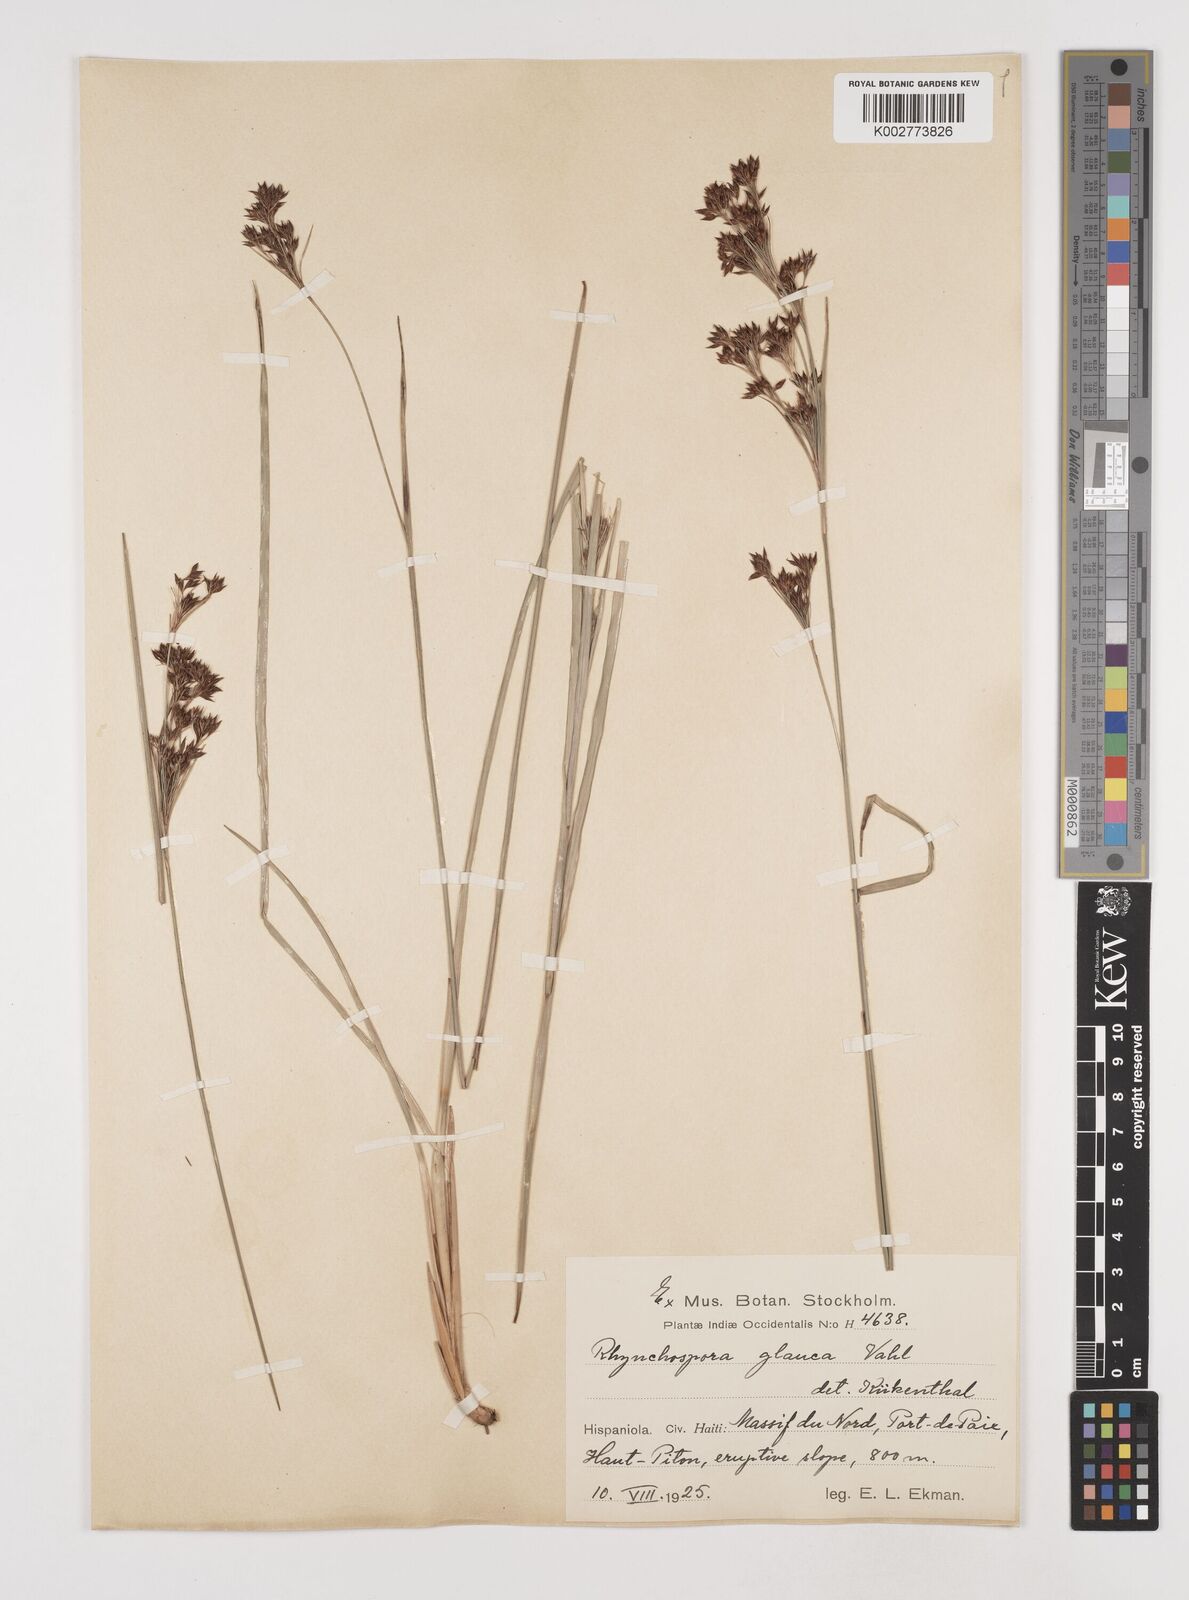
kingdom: Plantae
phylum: Tracheophyta
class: Liliopsida
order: Poales
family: Cyperaceae
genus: Rhynchospora
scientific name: Rhynchospora rugosa
